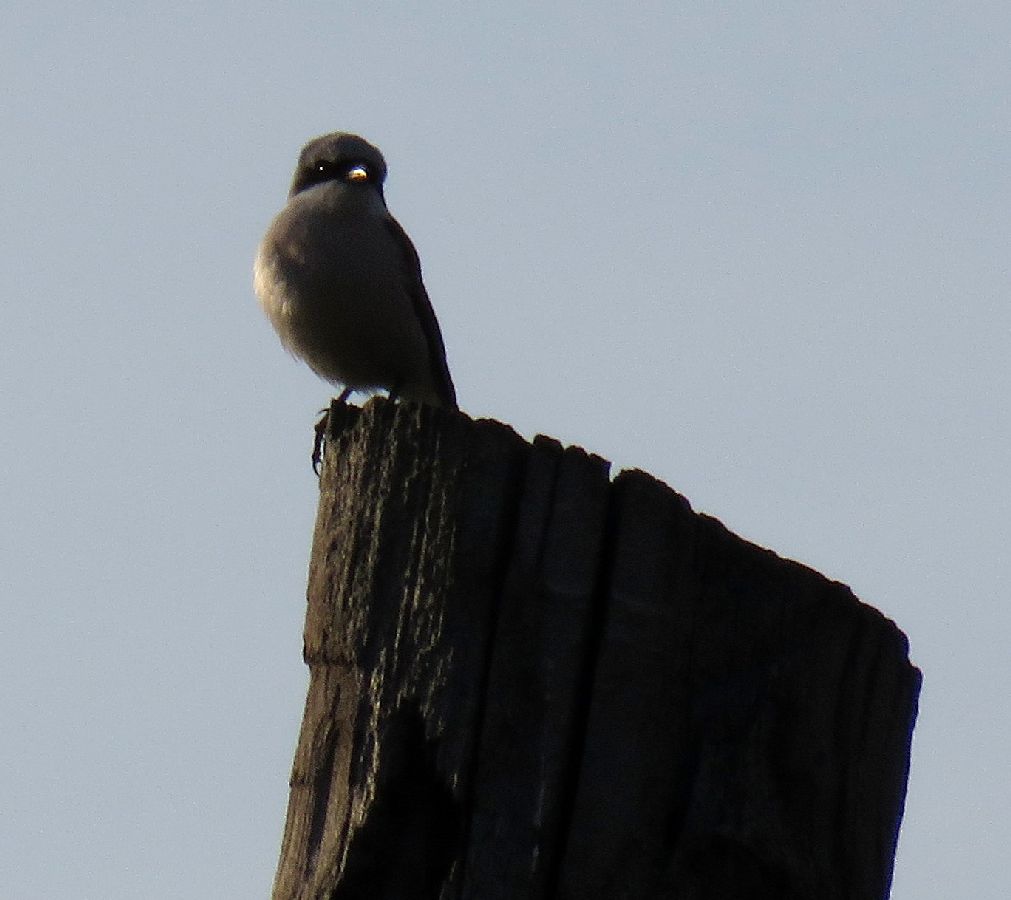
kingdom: Animalia
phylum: Chordata
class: Aves
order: Passeriformes
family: Laniidae
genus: Lanius
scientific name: Lanius collurio
